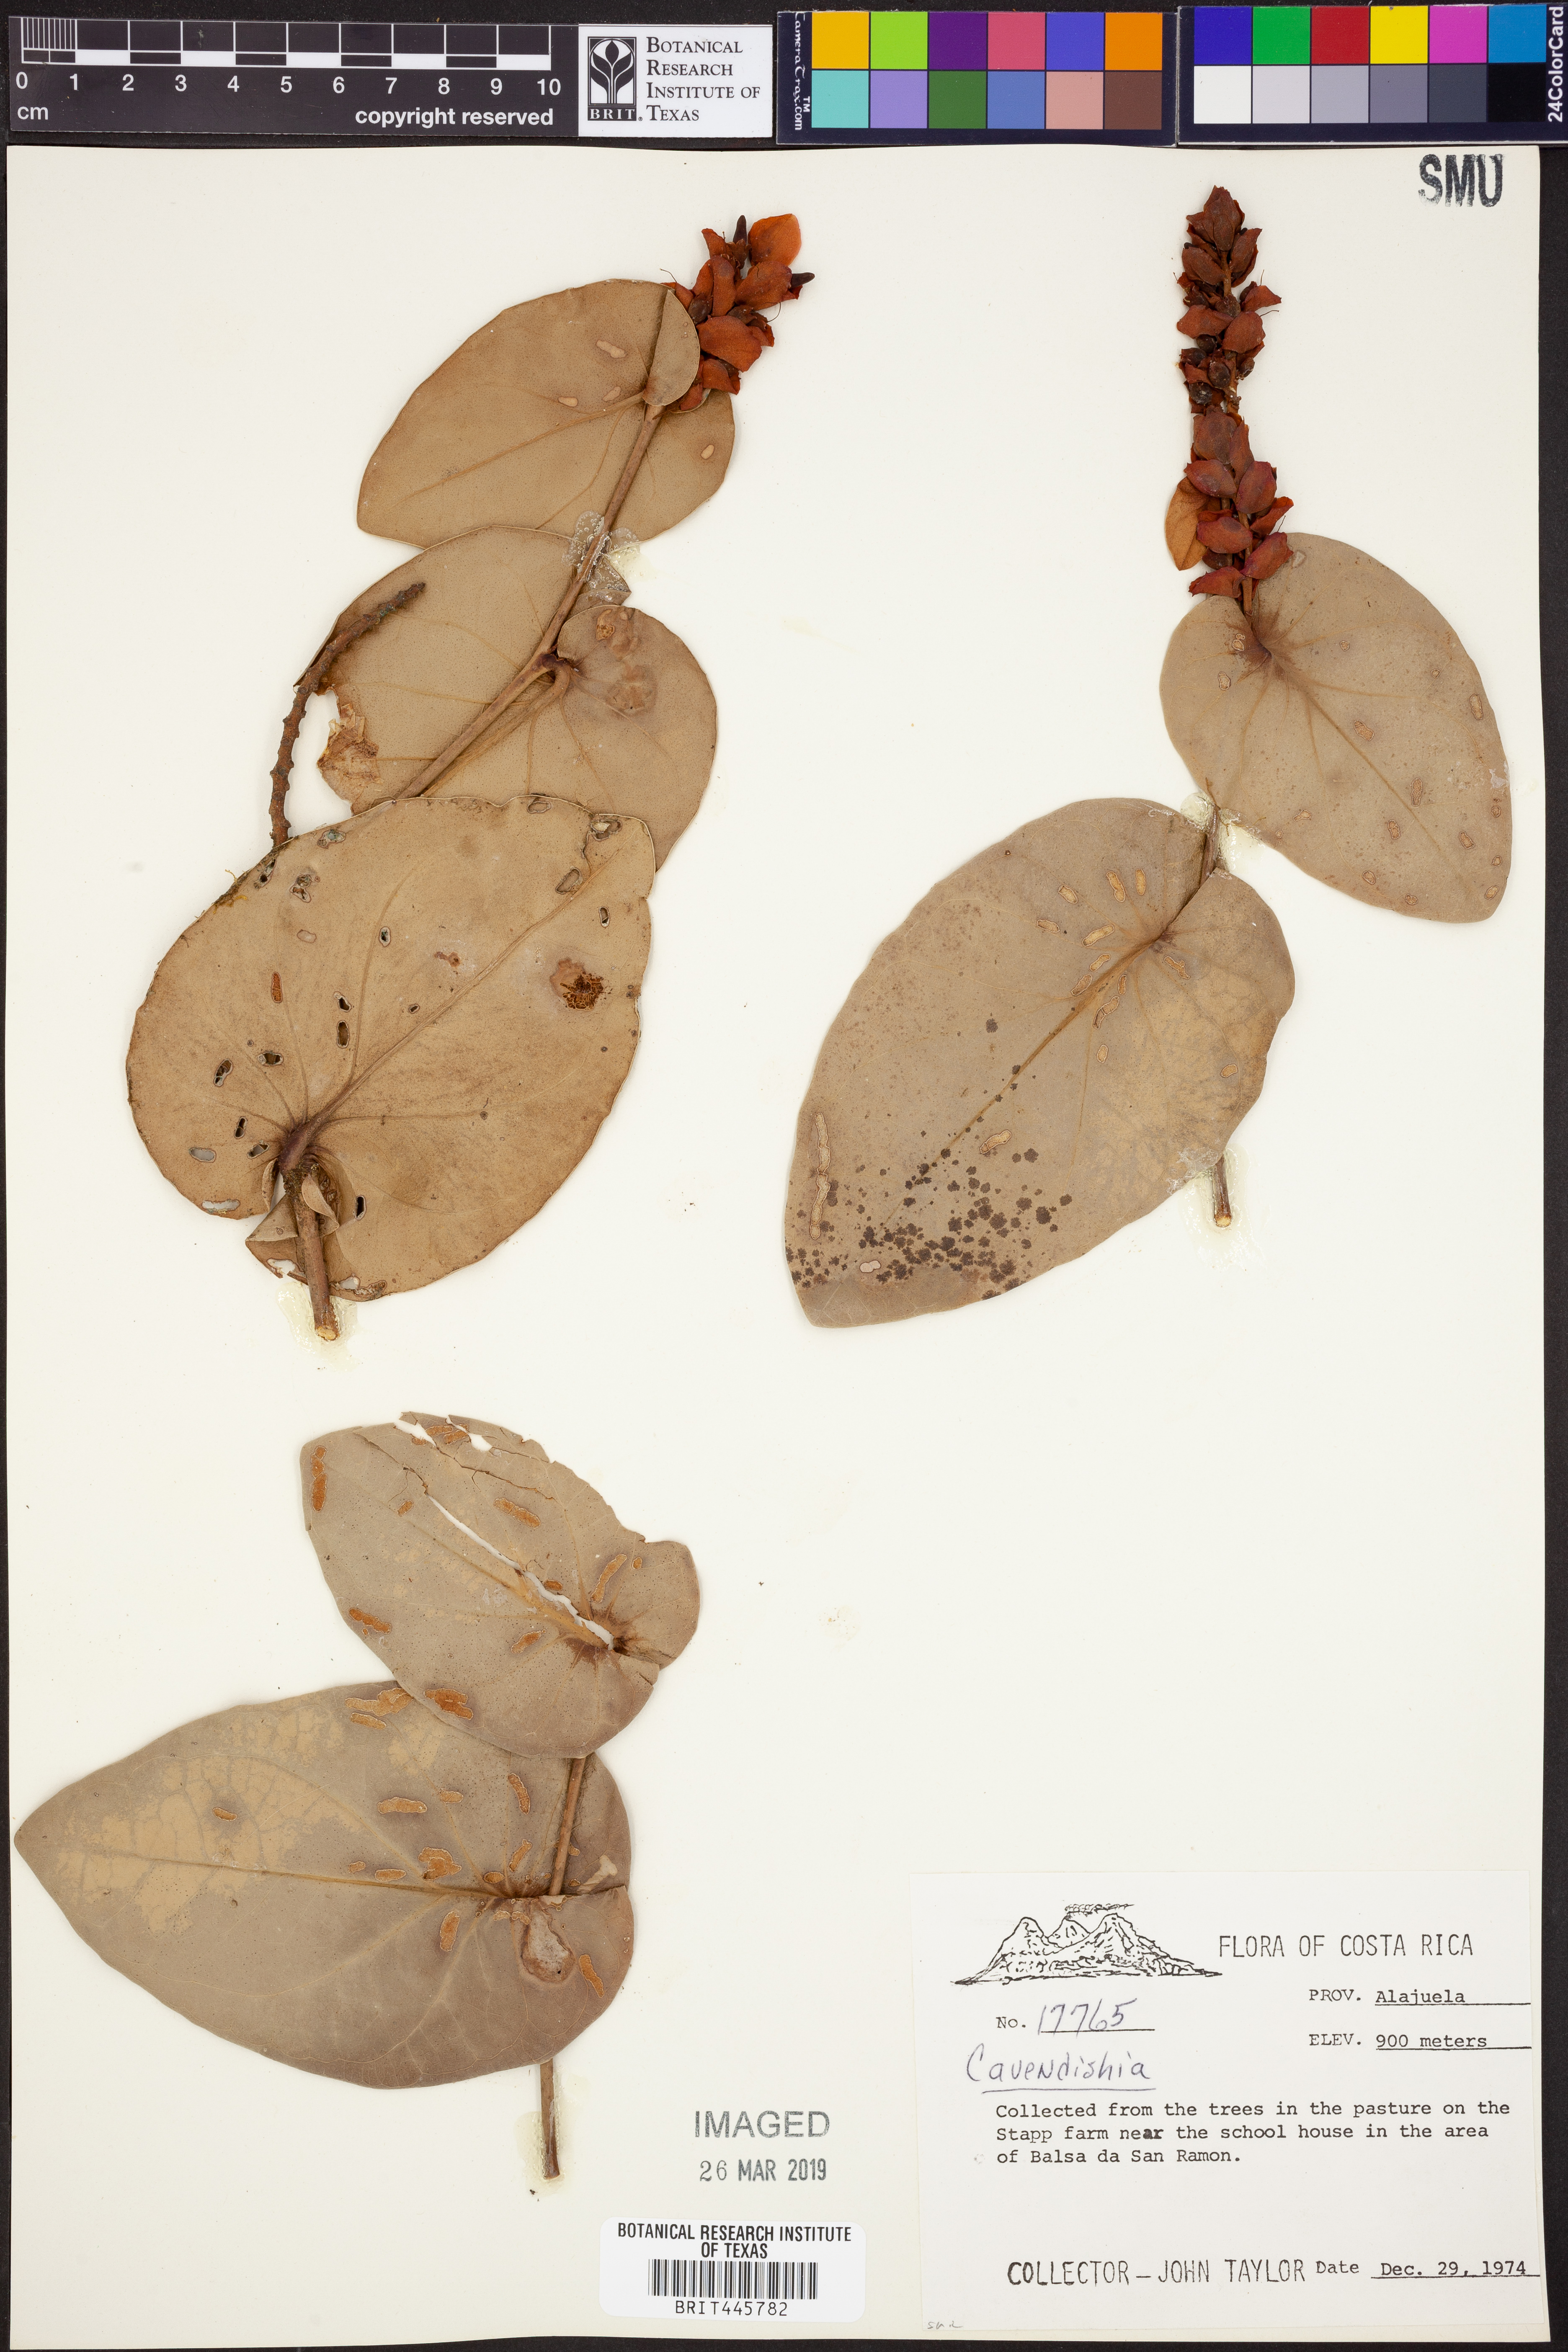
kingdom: Plantae
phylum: Tracheophyta
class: Magnoliopsida
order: Ericales
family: Ericaceae
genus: Cavendishia
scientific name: Cavendishia
